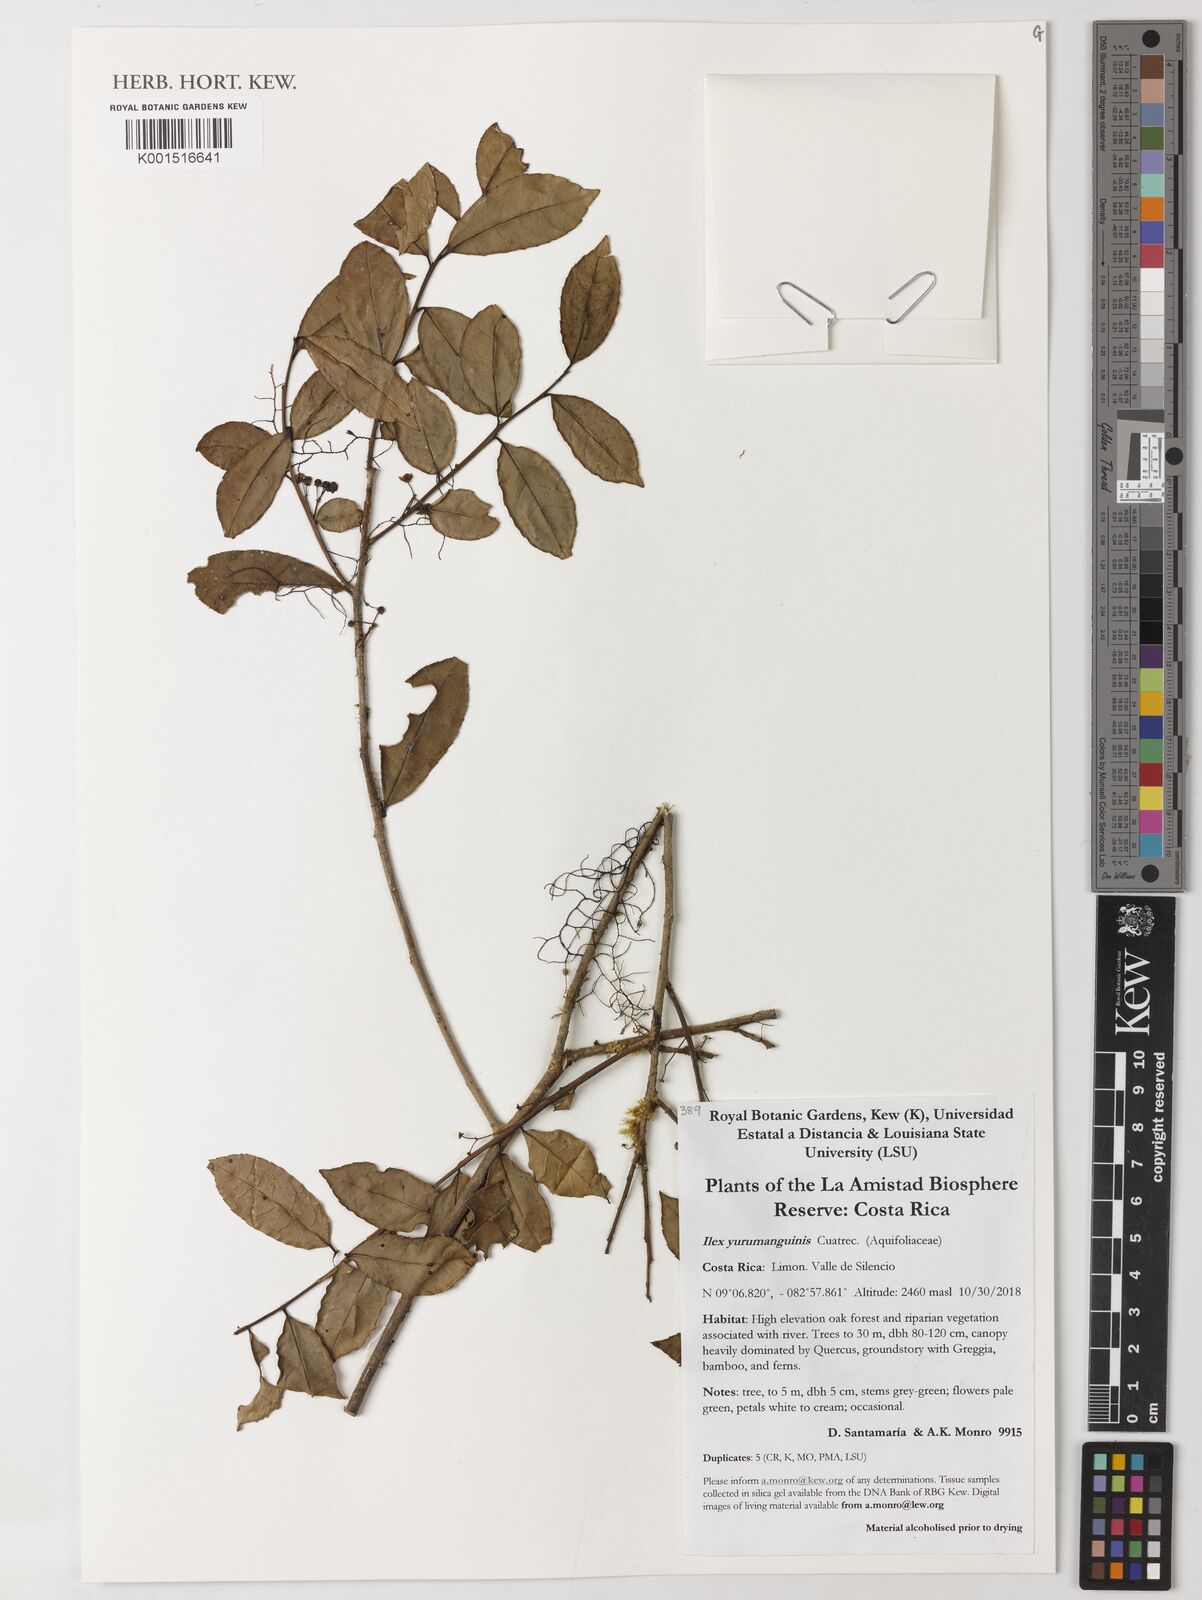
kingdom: Plantae
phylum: Tracheophyta
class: Magnoliopsida
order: Aquifoliales
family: Aquifoliaceae
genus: Ilex
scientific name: Ilex yurumanguinis
